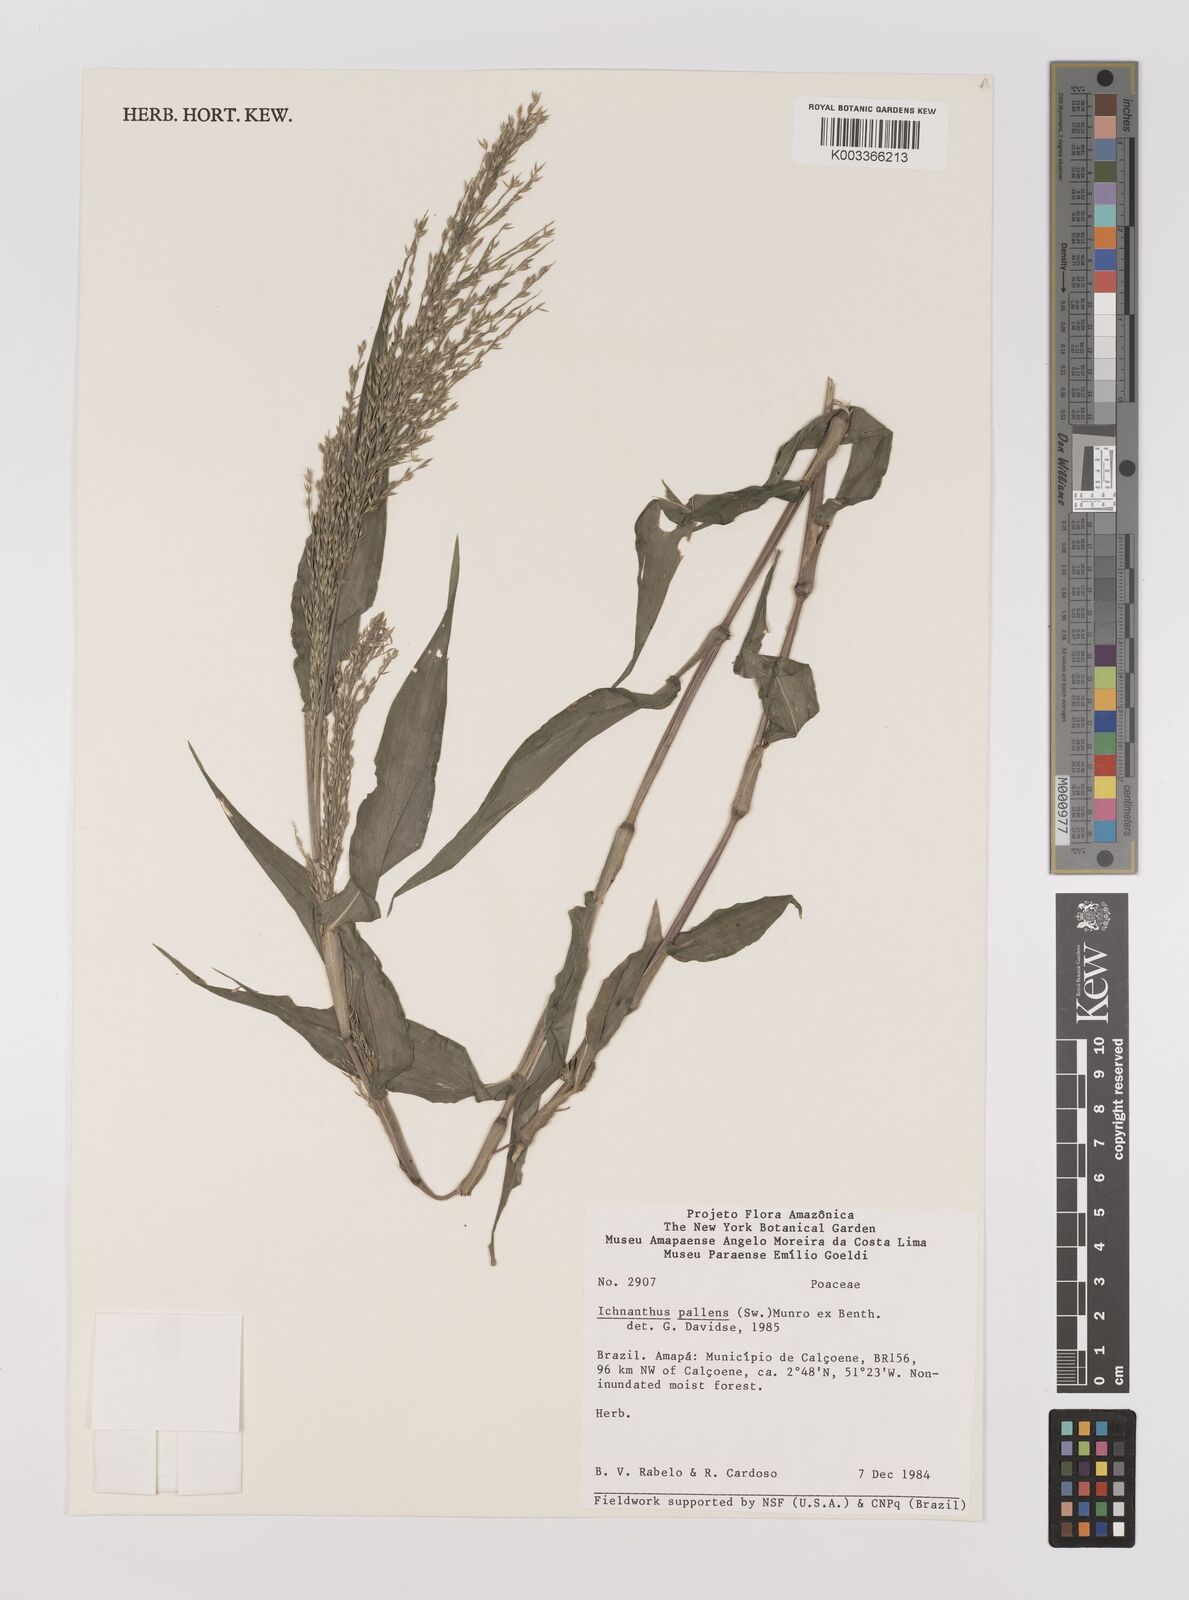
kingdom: Plantae
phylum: Tracheophyta
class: Liliopsida
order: Poales
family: Poaceae
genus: Ichnanthus
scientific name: Ichnanthus pallens
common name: Water grass
